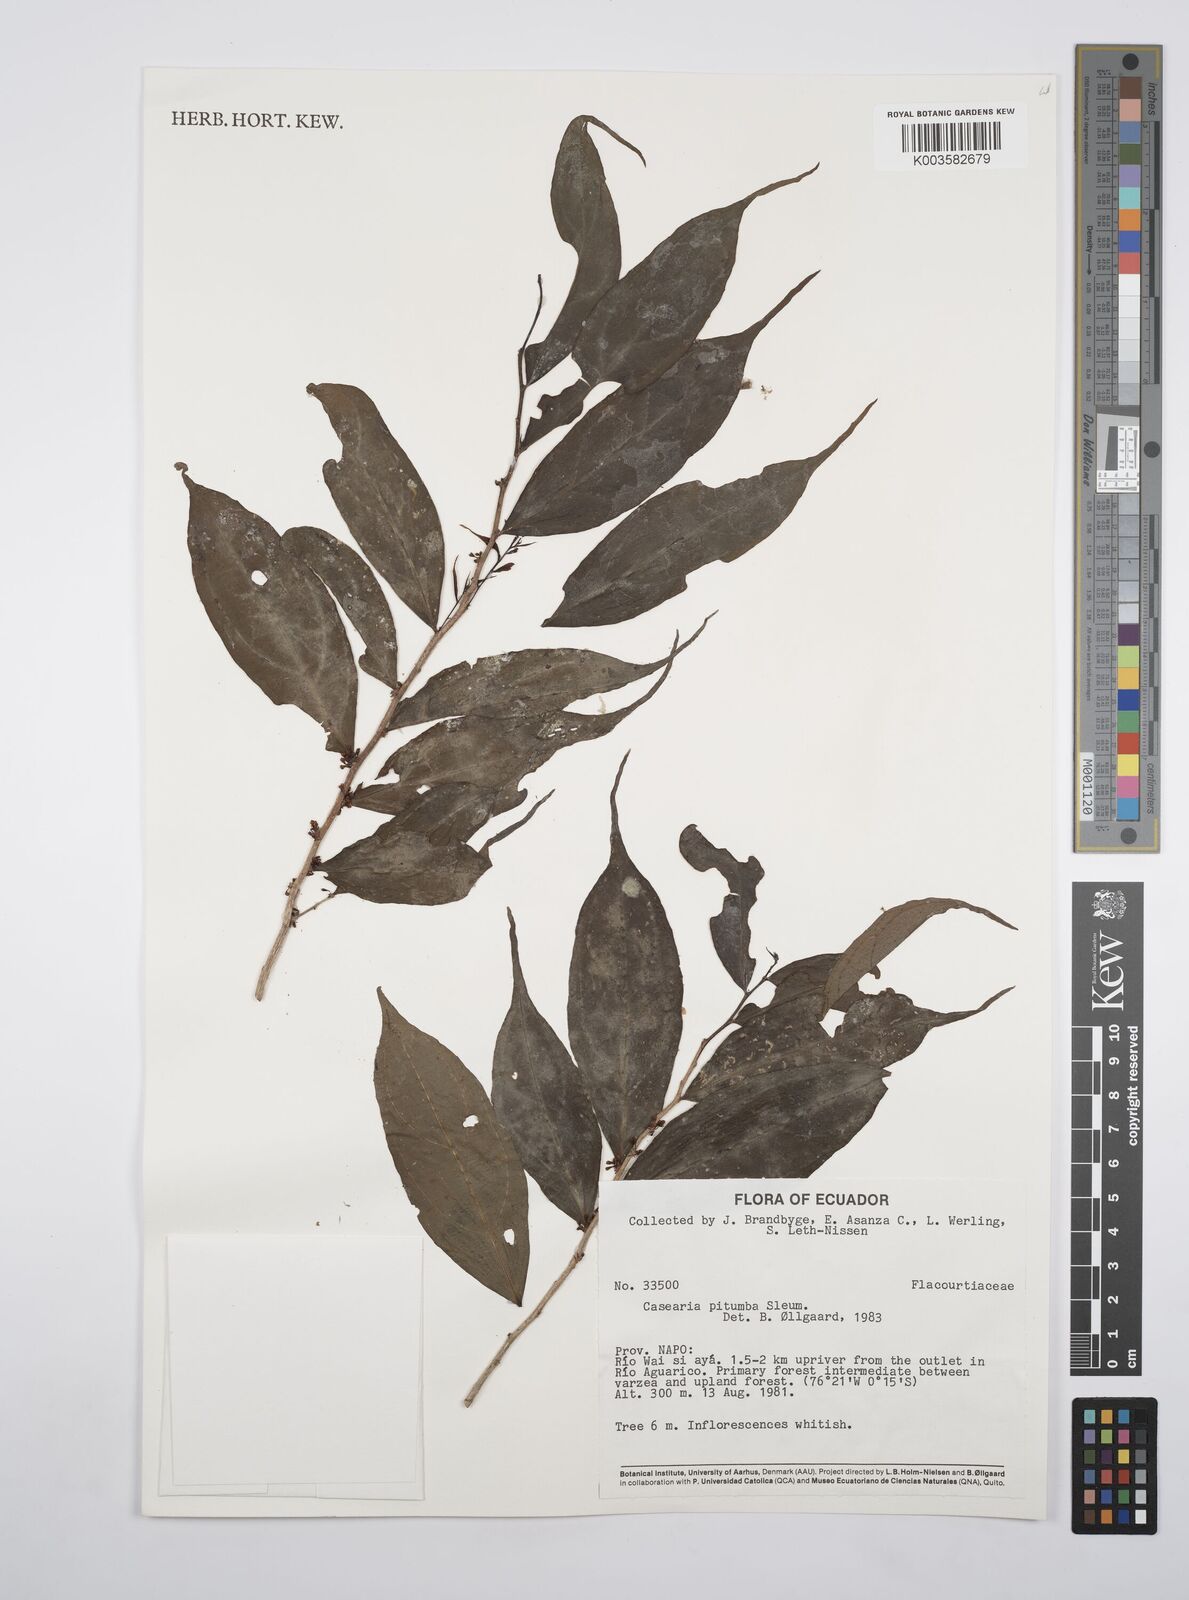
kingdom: Plantae
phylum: Tracheophyta
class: Magnoliopsida
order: Malpighiales
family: Salicaceae
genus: Casearia
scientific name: Casearia pitumba
